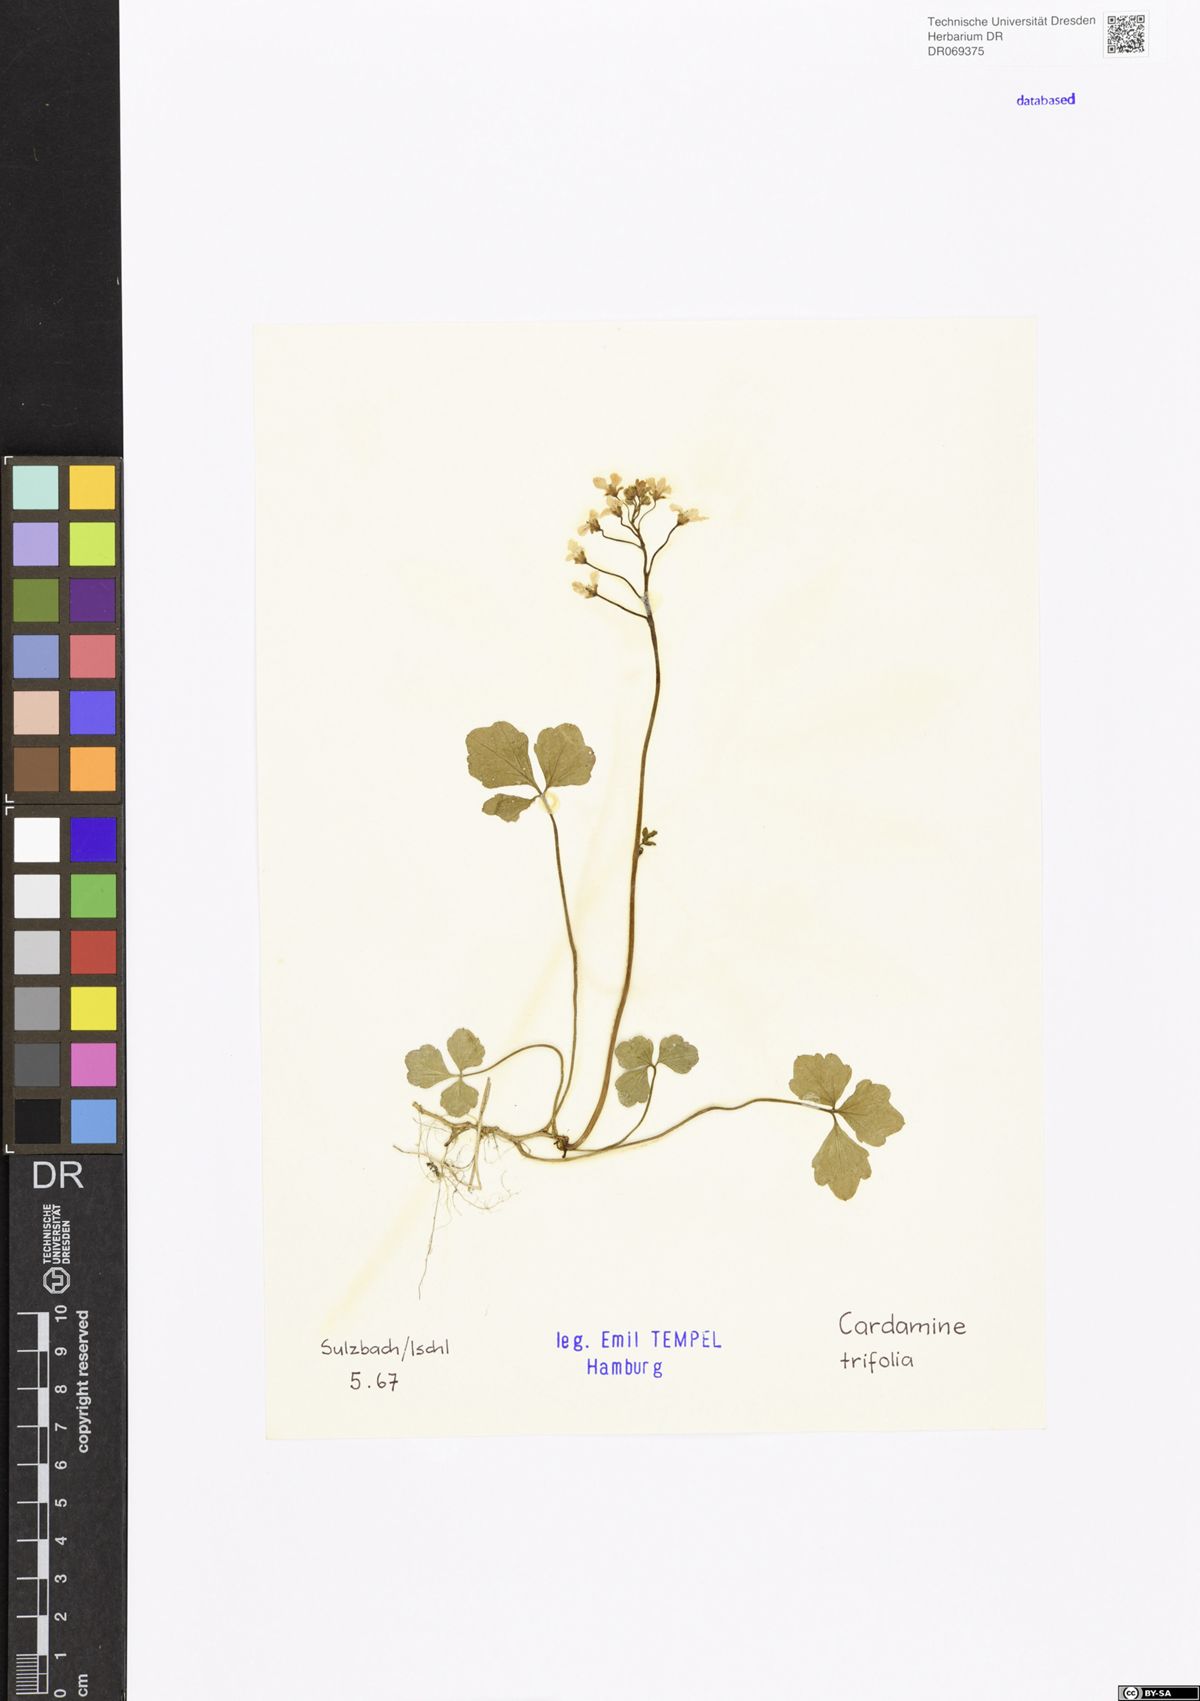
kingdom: Plantae
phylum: Tracheophyta
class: Magnoliopsida
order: Brassicales
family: Brassicaceae
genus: Cardamine
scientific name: Cardamine trifolia
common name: Trefoil cress
